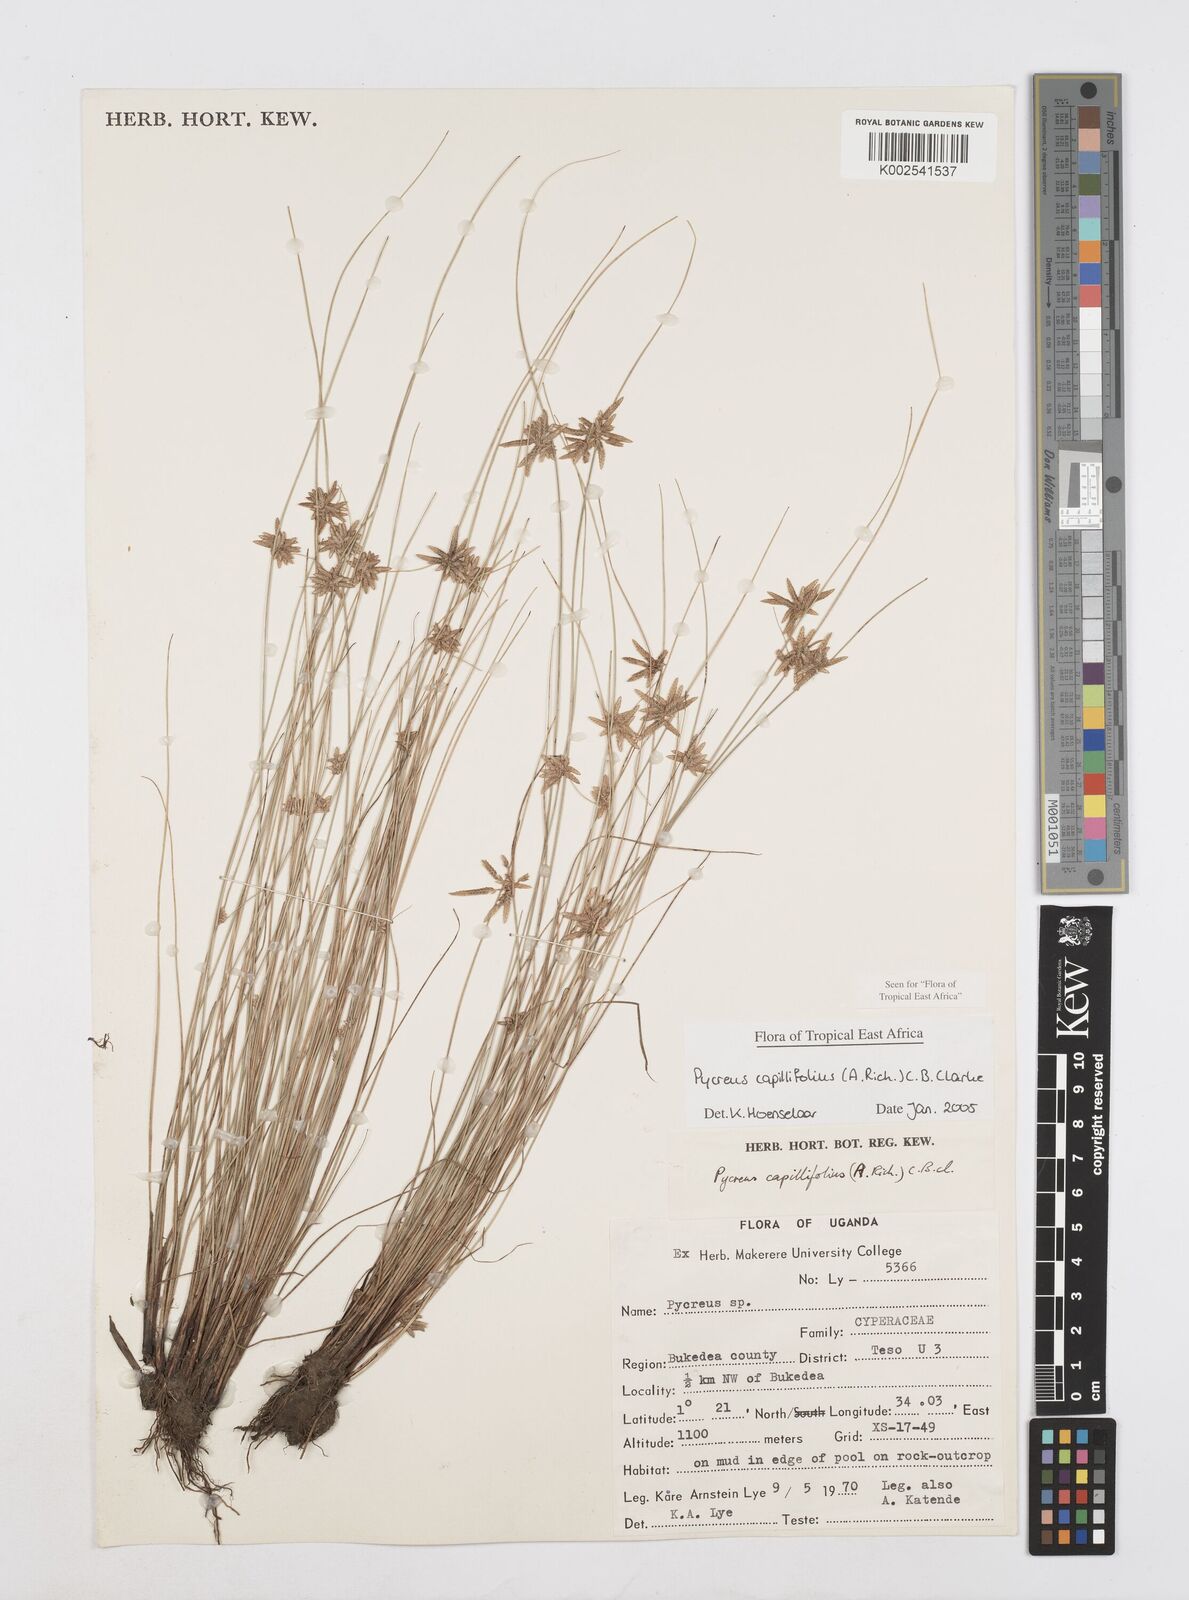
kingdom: Plantae
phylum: Tracheophyta
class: Liliopsida
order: Poales
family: Cyperaceae
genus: Cyperus
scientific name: Cyperus capillifolius
